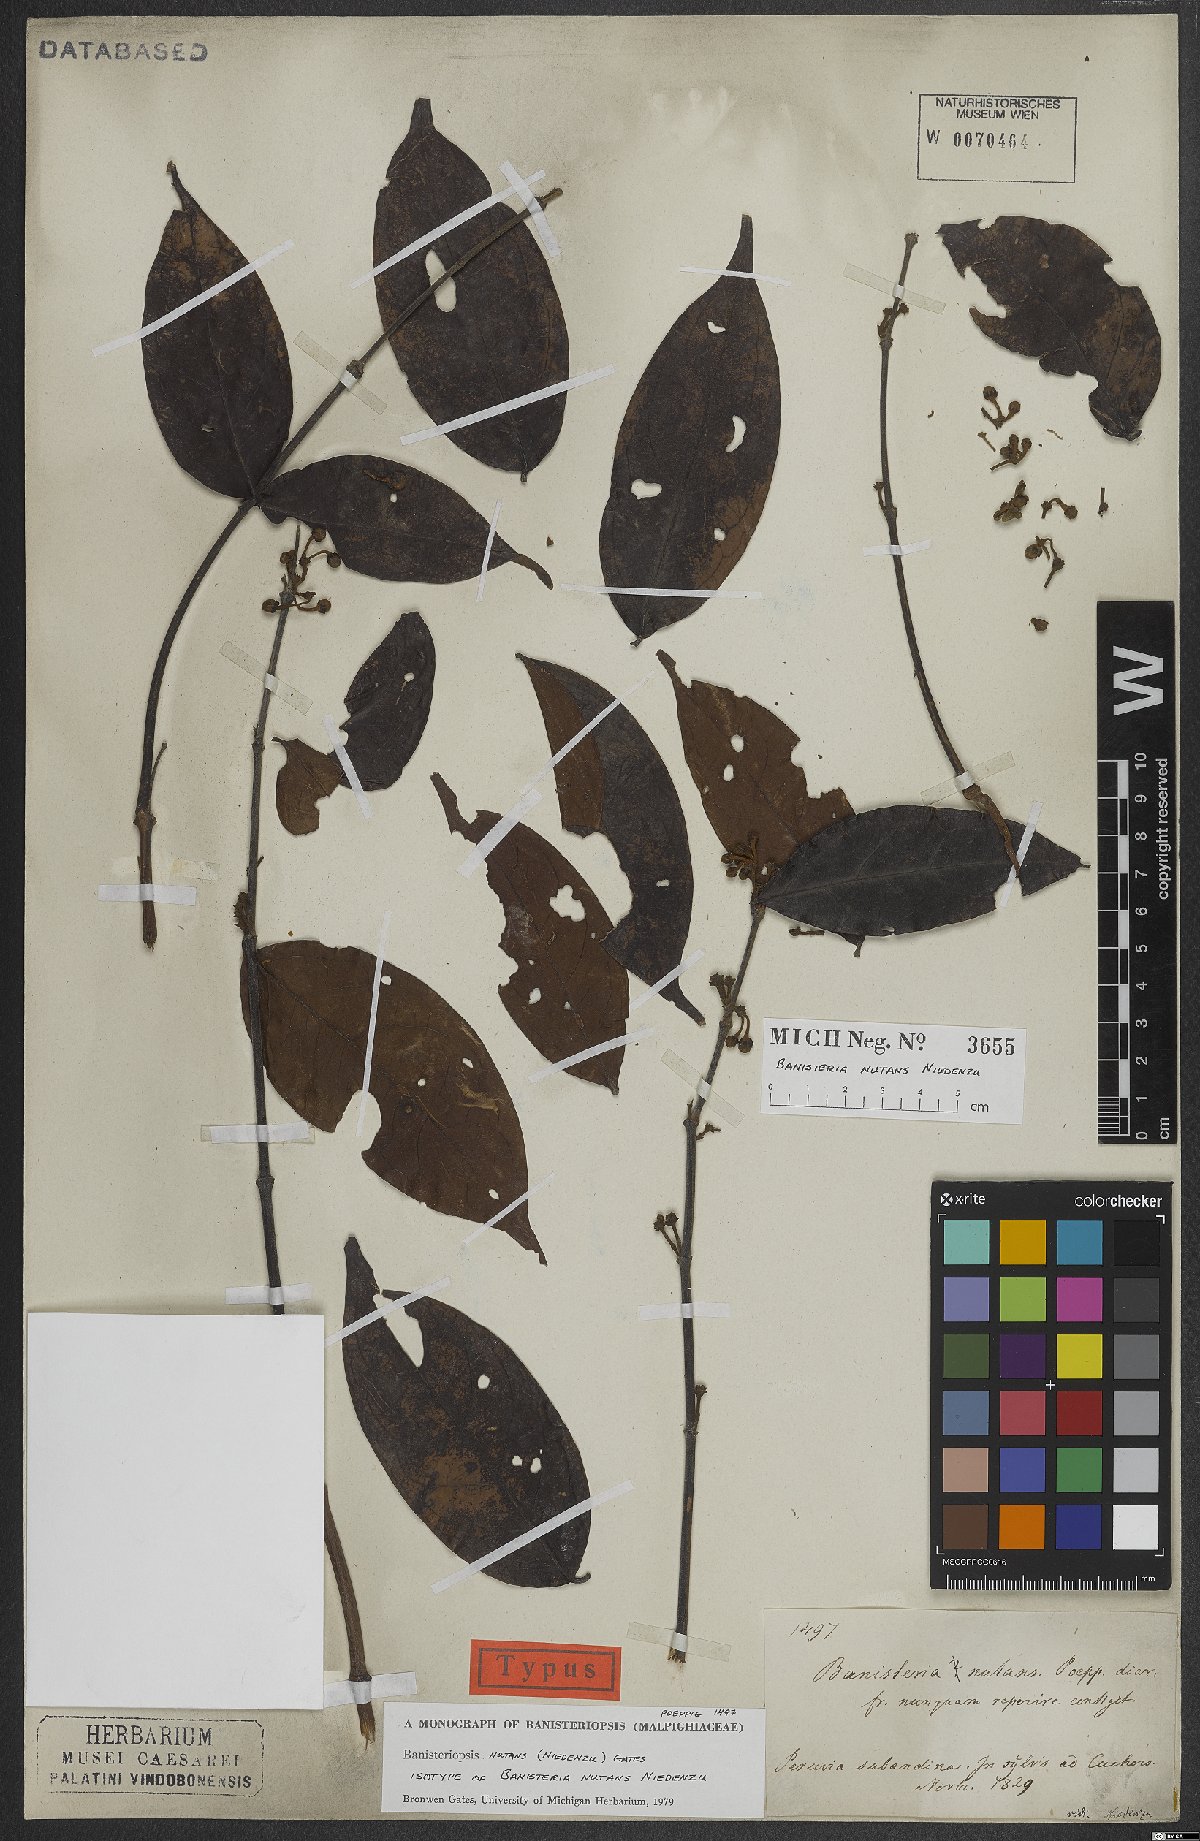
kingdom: Plantae
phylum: Tracheophyta
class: Magnoliopsida
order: Malpighiales
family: Malpighiaceae
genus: Diplopterys
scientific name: Diplopterys nutans
